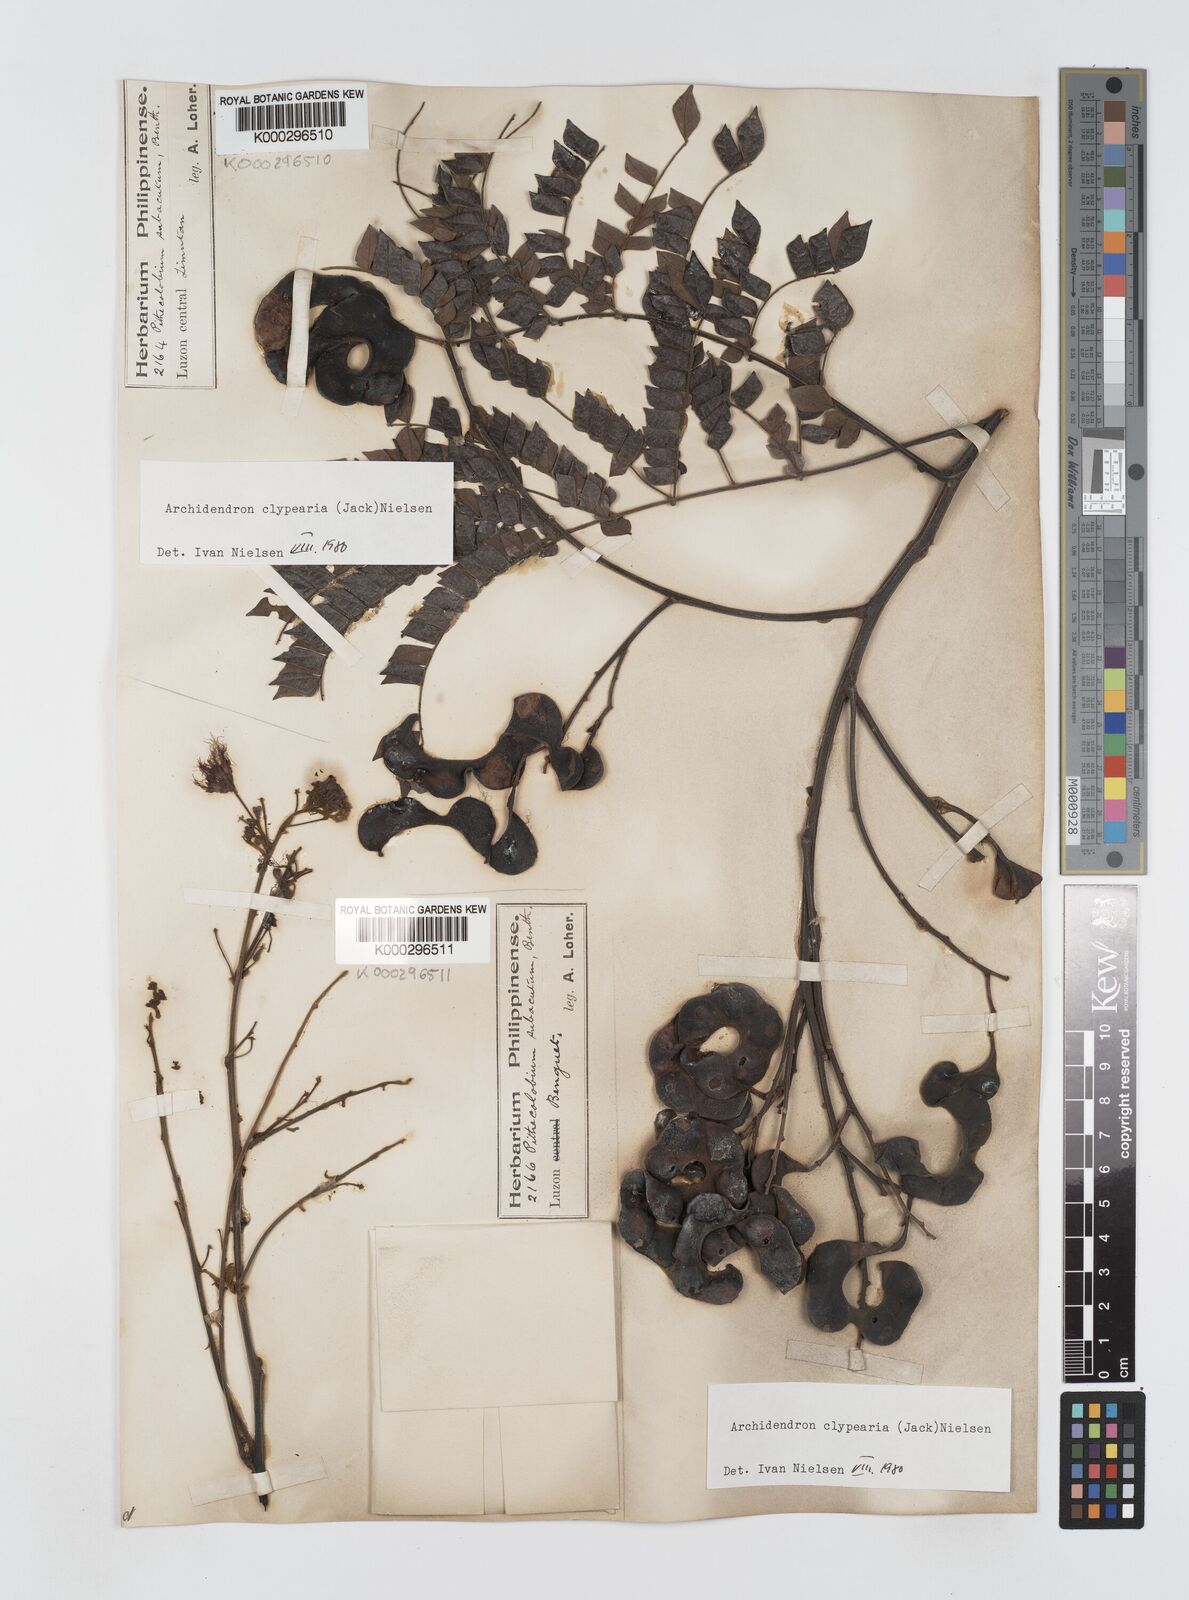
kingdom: Plantae
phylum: Tracheophyta
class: Magnoliopsida
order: Fabales
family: Fabaceae
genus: Archidendron
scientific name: Archidendron clypearia
